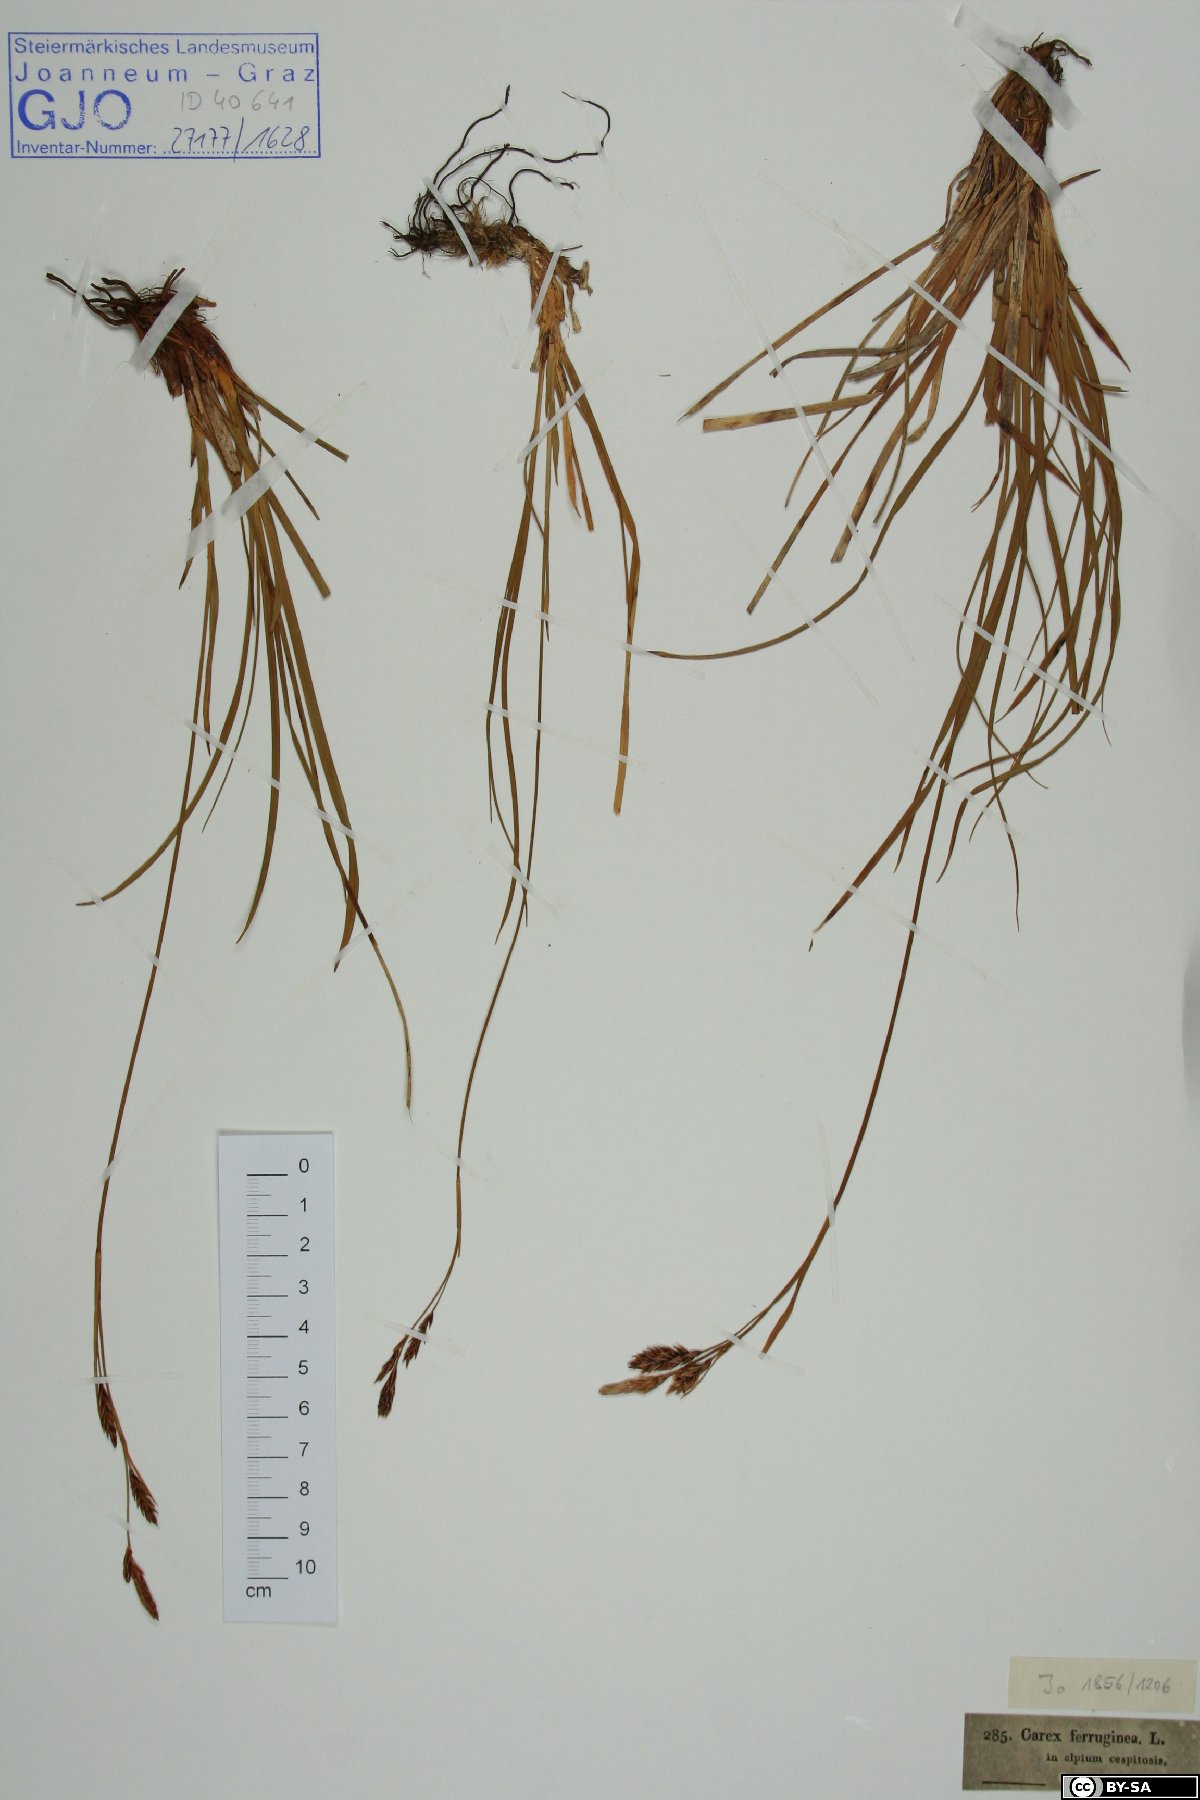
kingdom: Plantae
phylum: Tracheophyta
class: Liliopsida
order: Poales
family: Cyperaceae
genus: Carex
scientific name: Carex ferruginea
